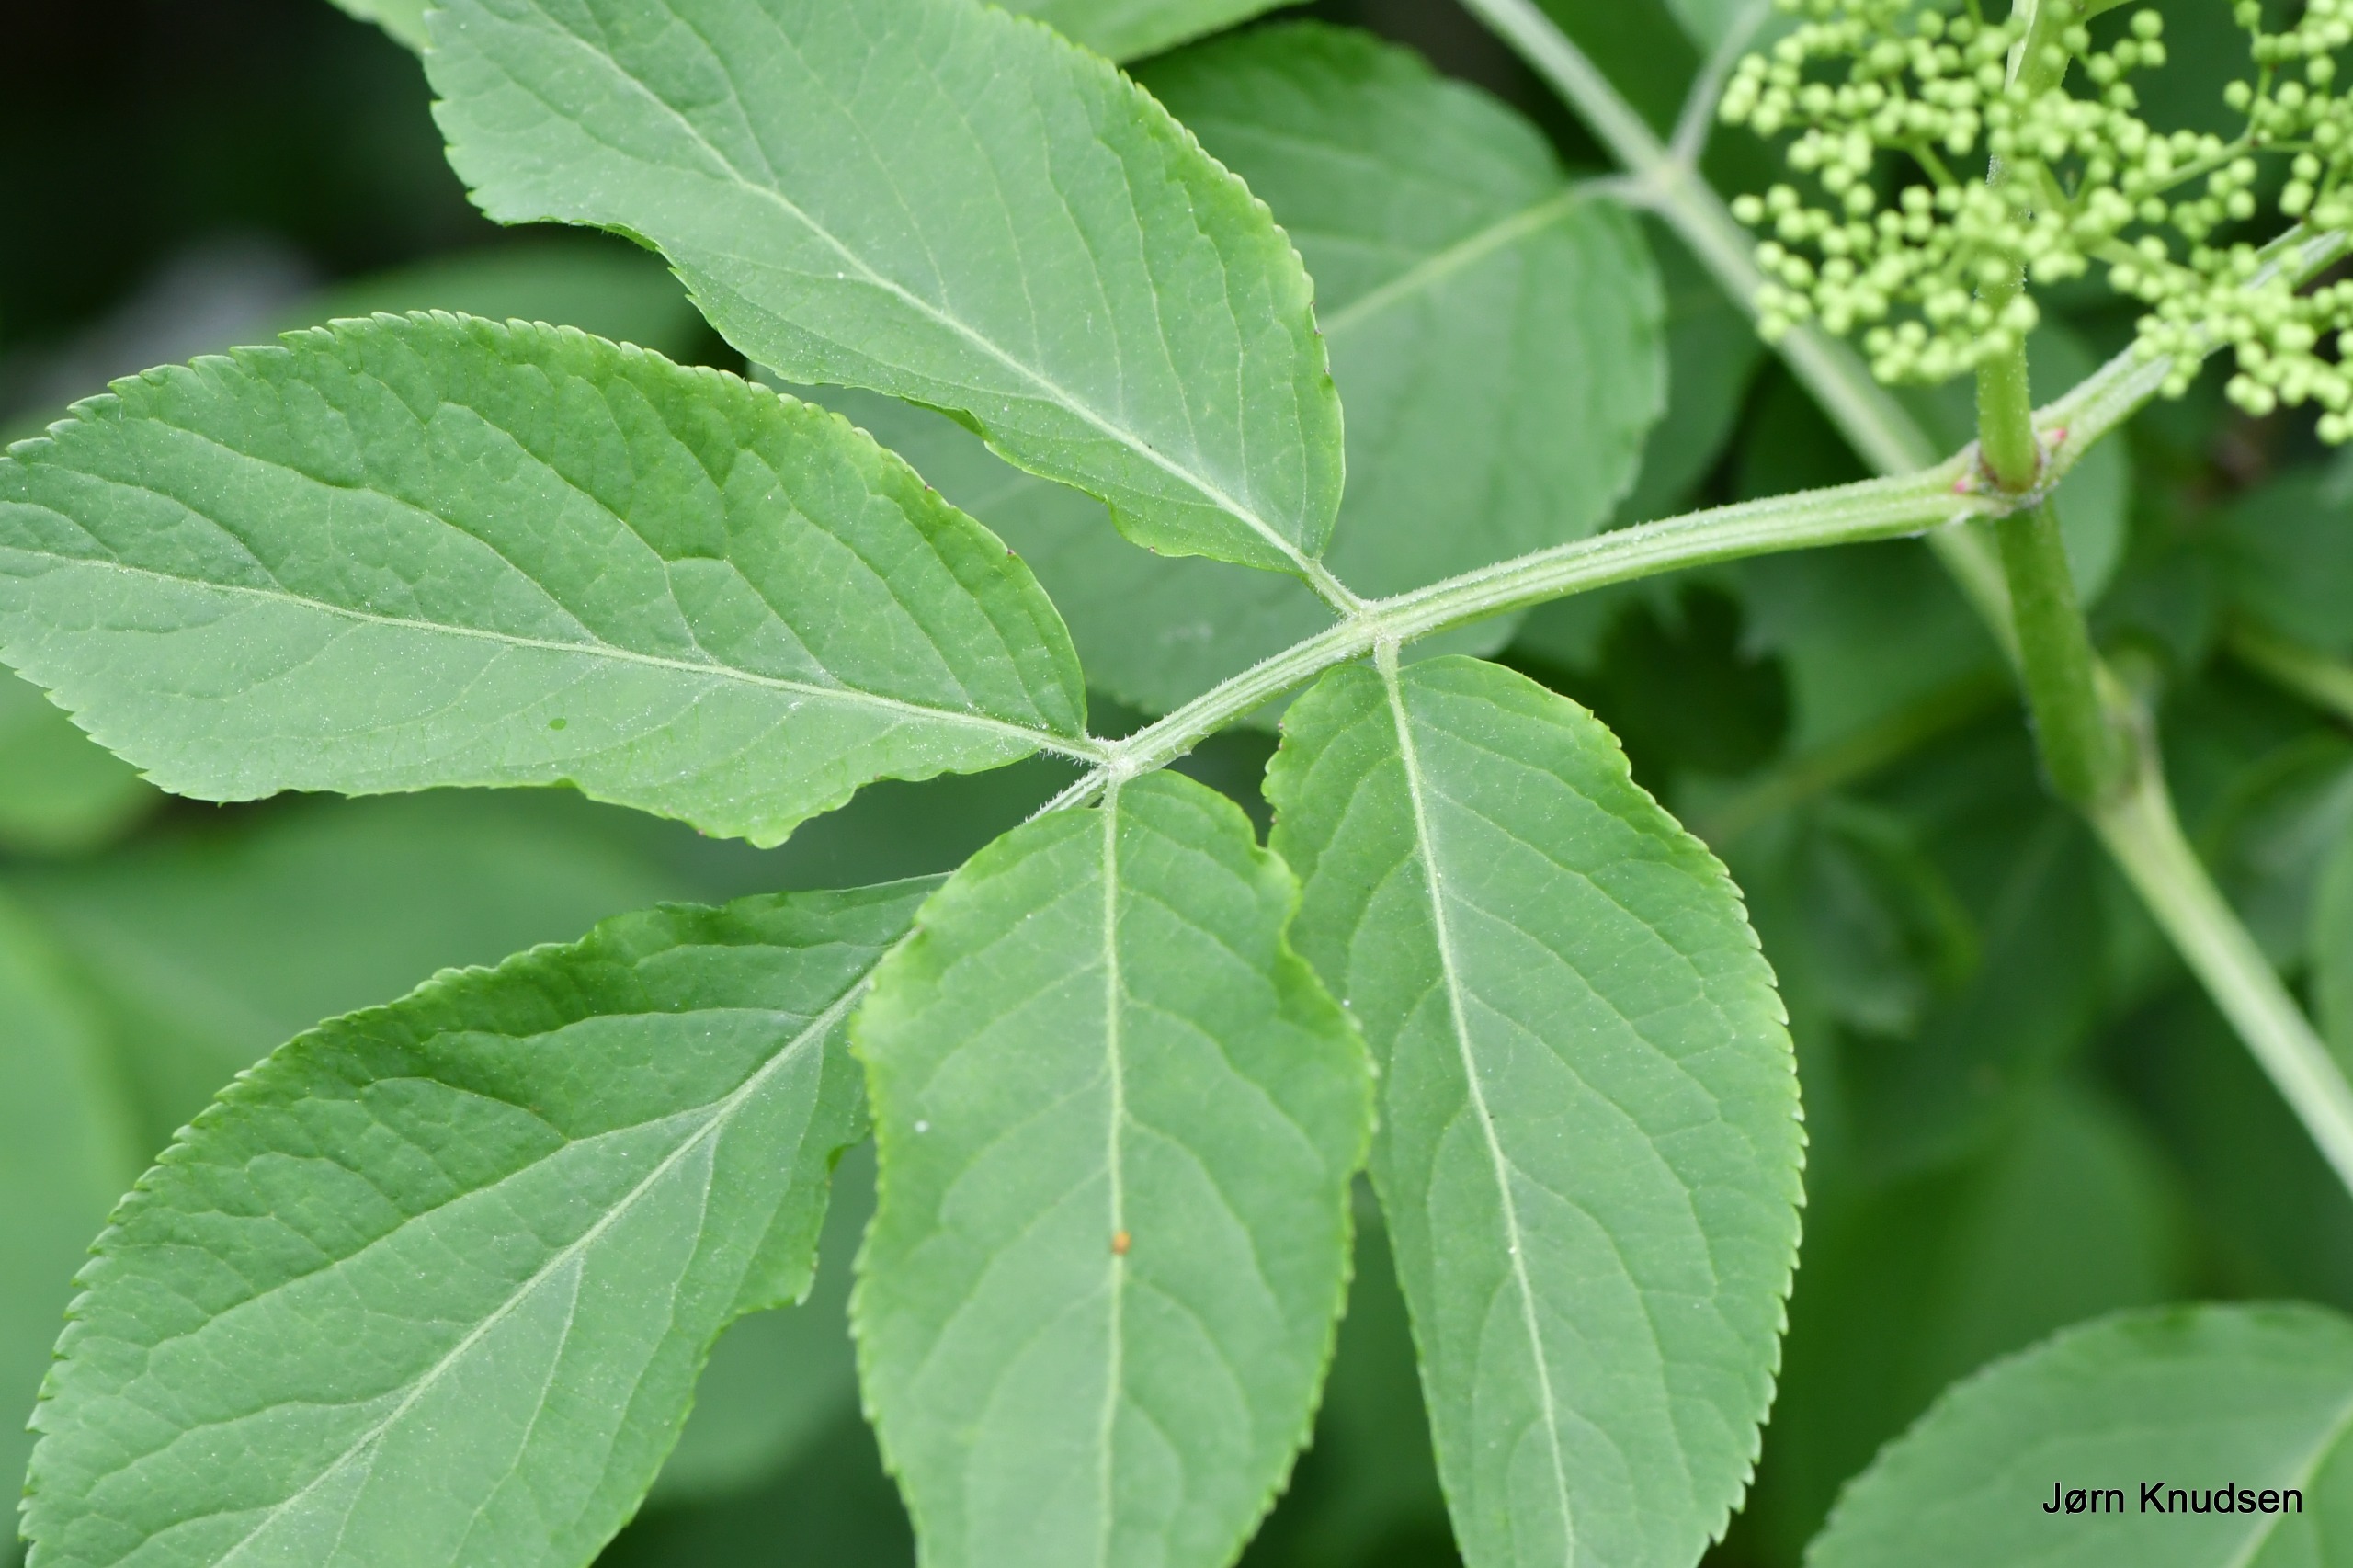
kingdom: Plantae
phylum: Tracheophyta
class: Magnoliopsida
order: Dipsacales
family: Viburnaceae
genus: Sambucus
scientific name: Sambucus nigra
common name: Almindelig hyld
